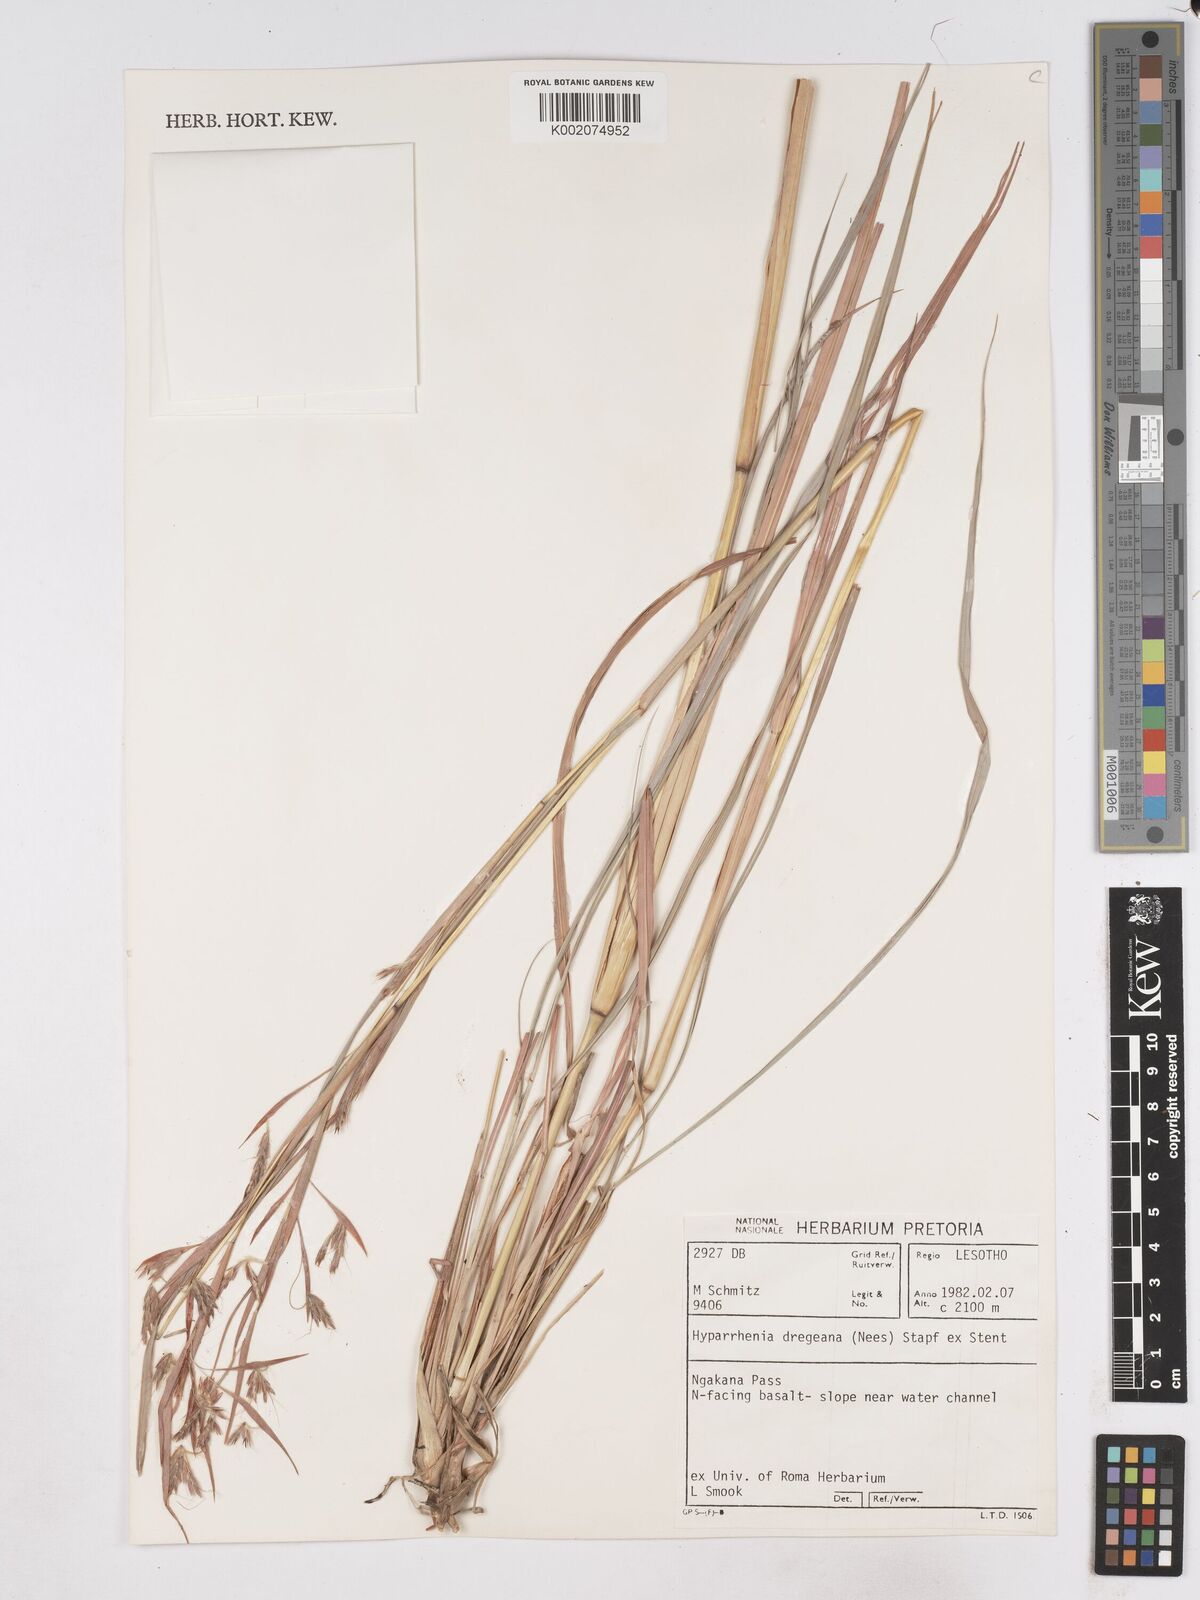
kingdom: Plantae
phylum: Tracheophyta
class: Liliopsida
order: Poales
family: Poaceae
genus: Hyparrhenia
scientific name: Hyparrhenia dregeana
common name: Silky thatching grass
